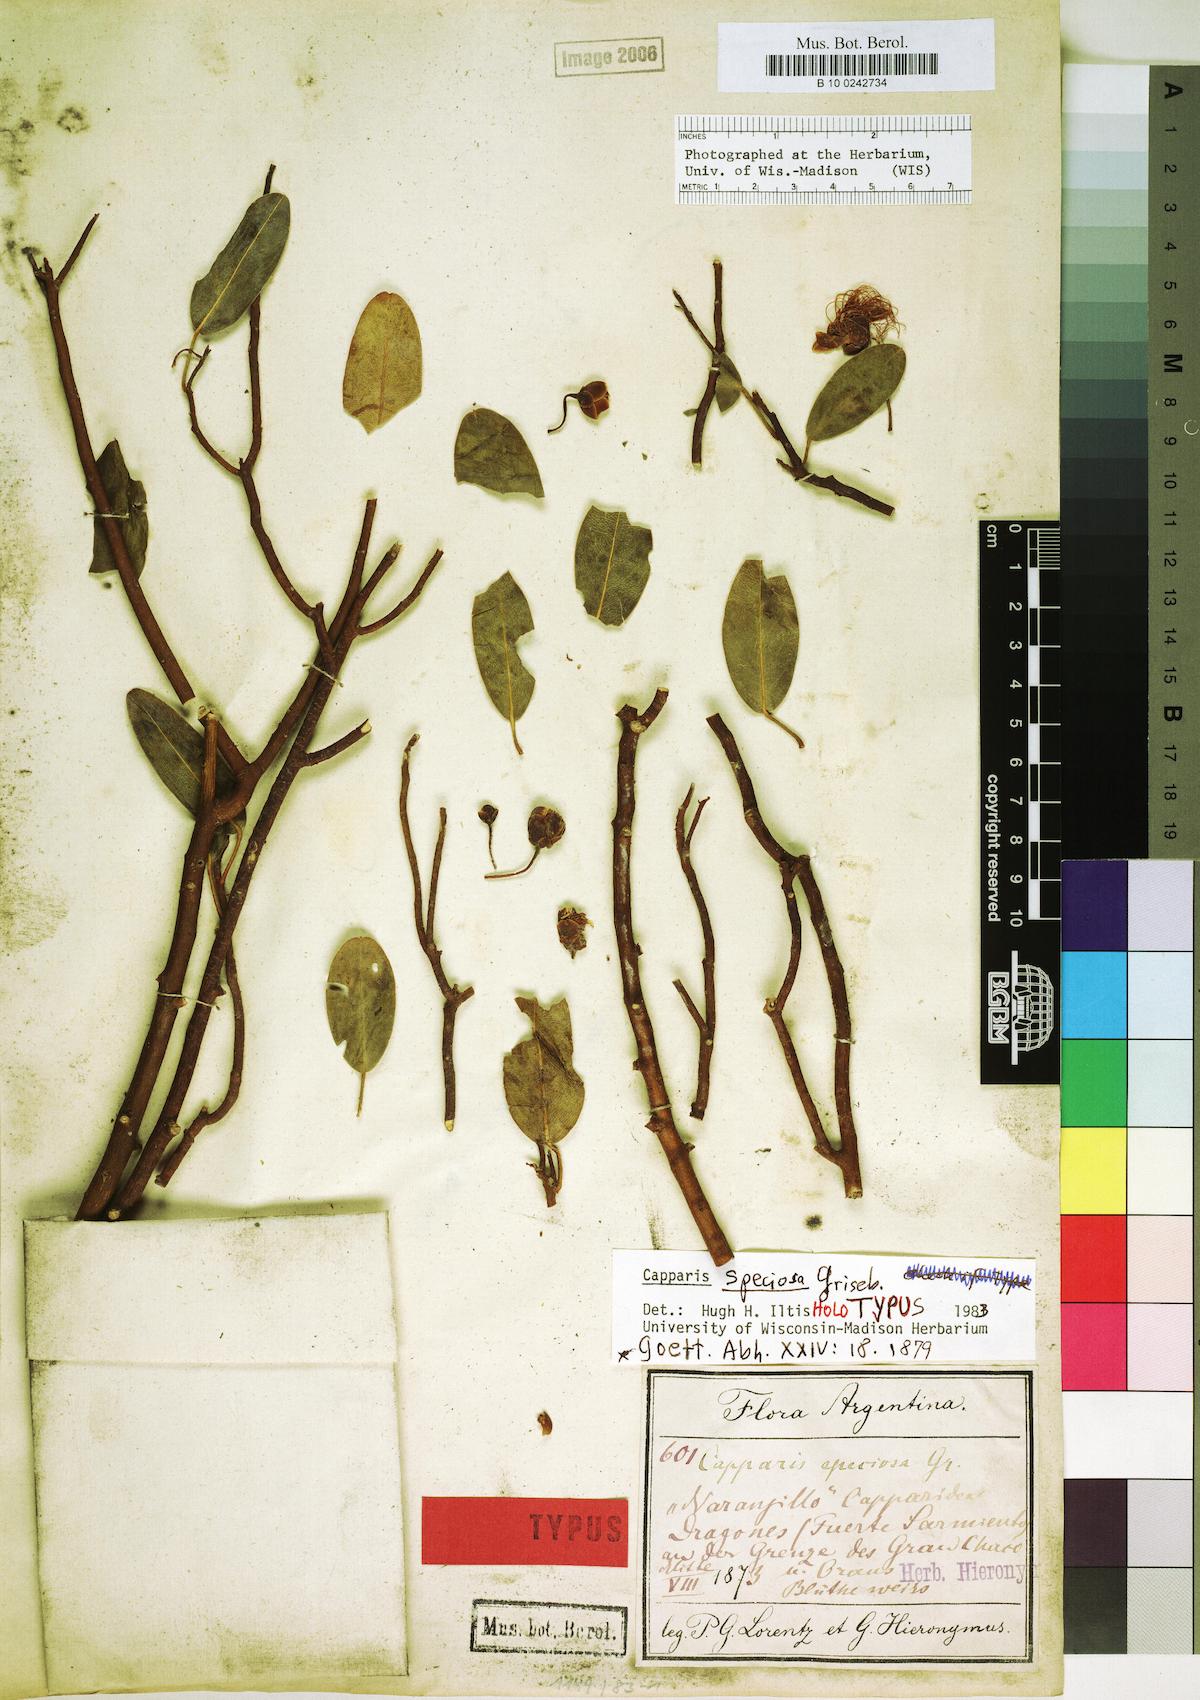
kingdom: Plantae
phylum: Tracheophyta
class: Magnoliopsida
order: Brassicales
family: Capparaceae
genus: Anisocapparis
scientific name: Anisocapparis speciosa
